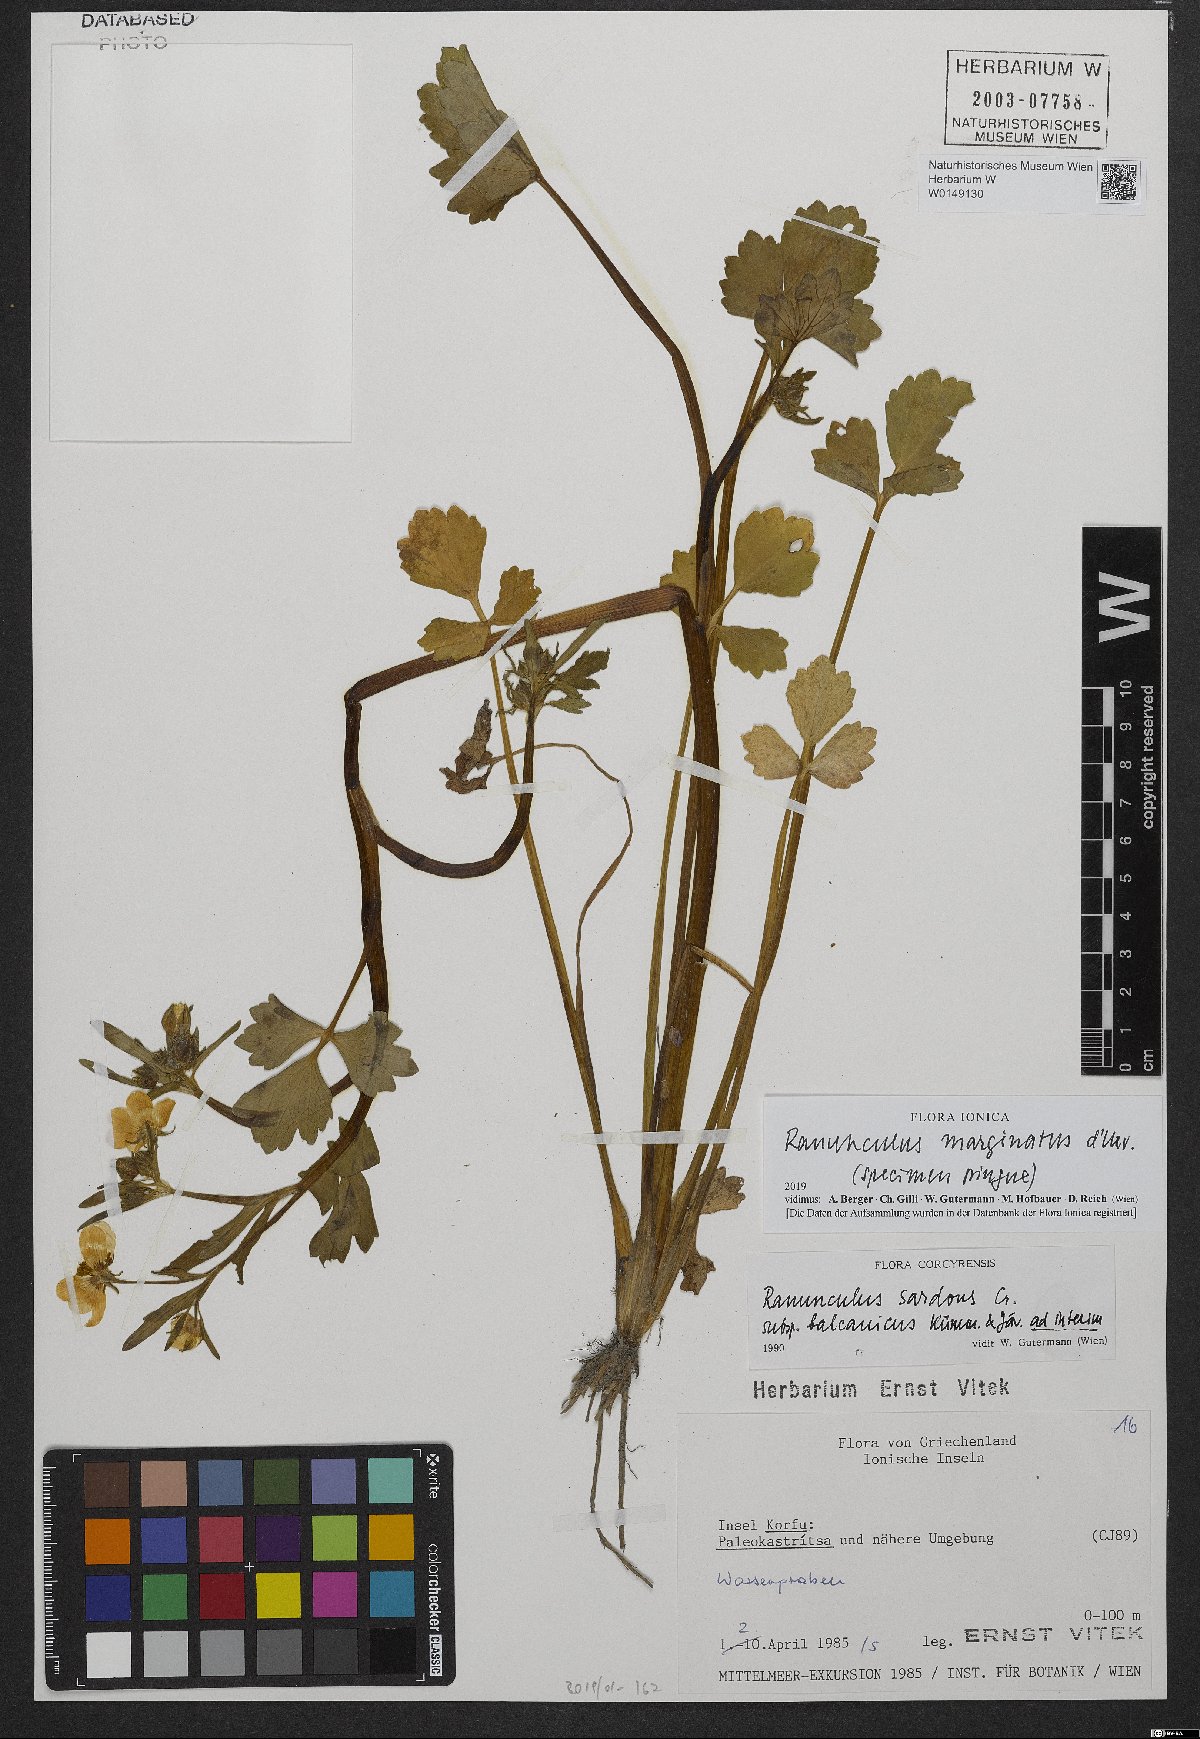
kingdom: Plantae
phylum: Tracheophyta
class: Magnoliopsida
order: Ranunculales
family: Ranunculaceae
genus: Ranunculus
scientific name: Ranunculus marginatus
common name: St. martin's buttercup
